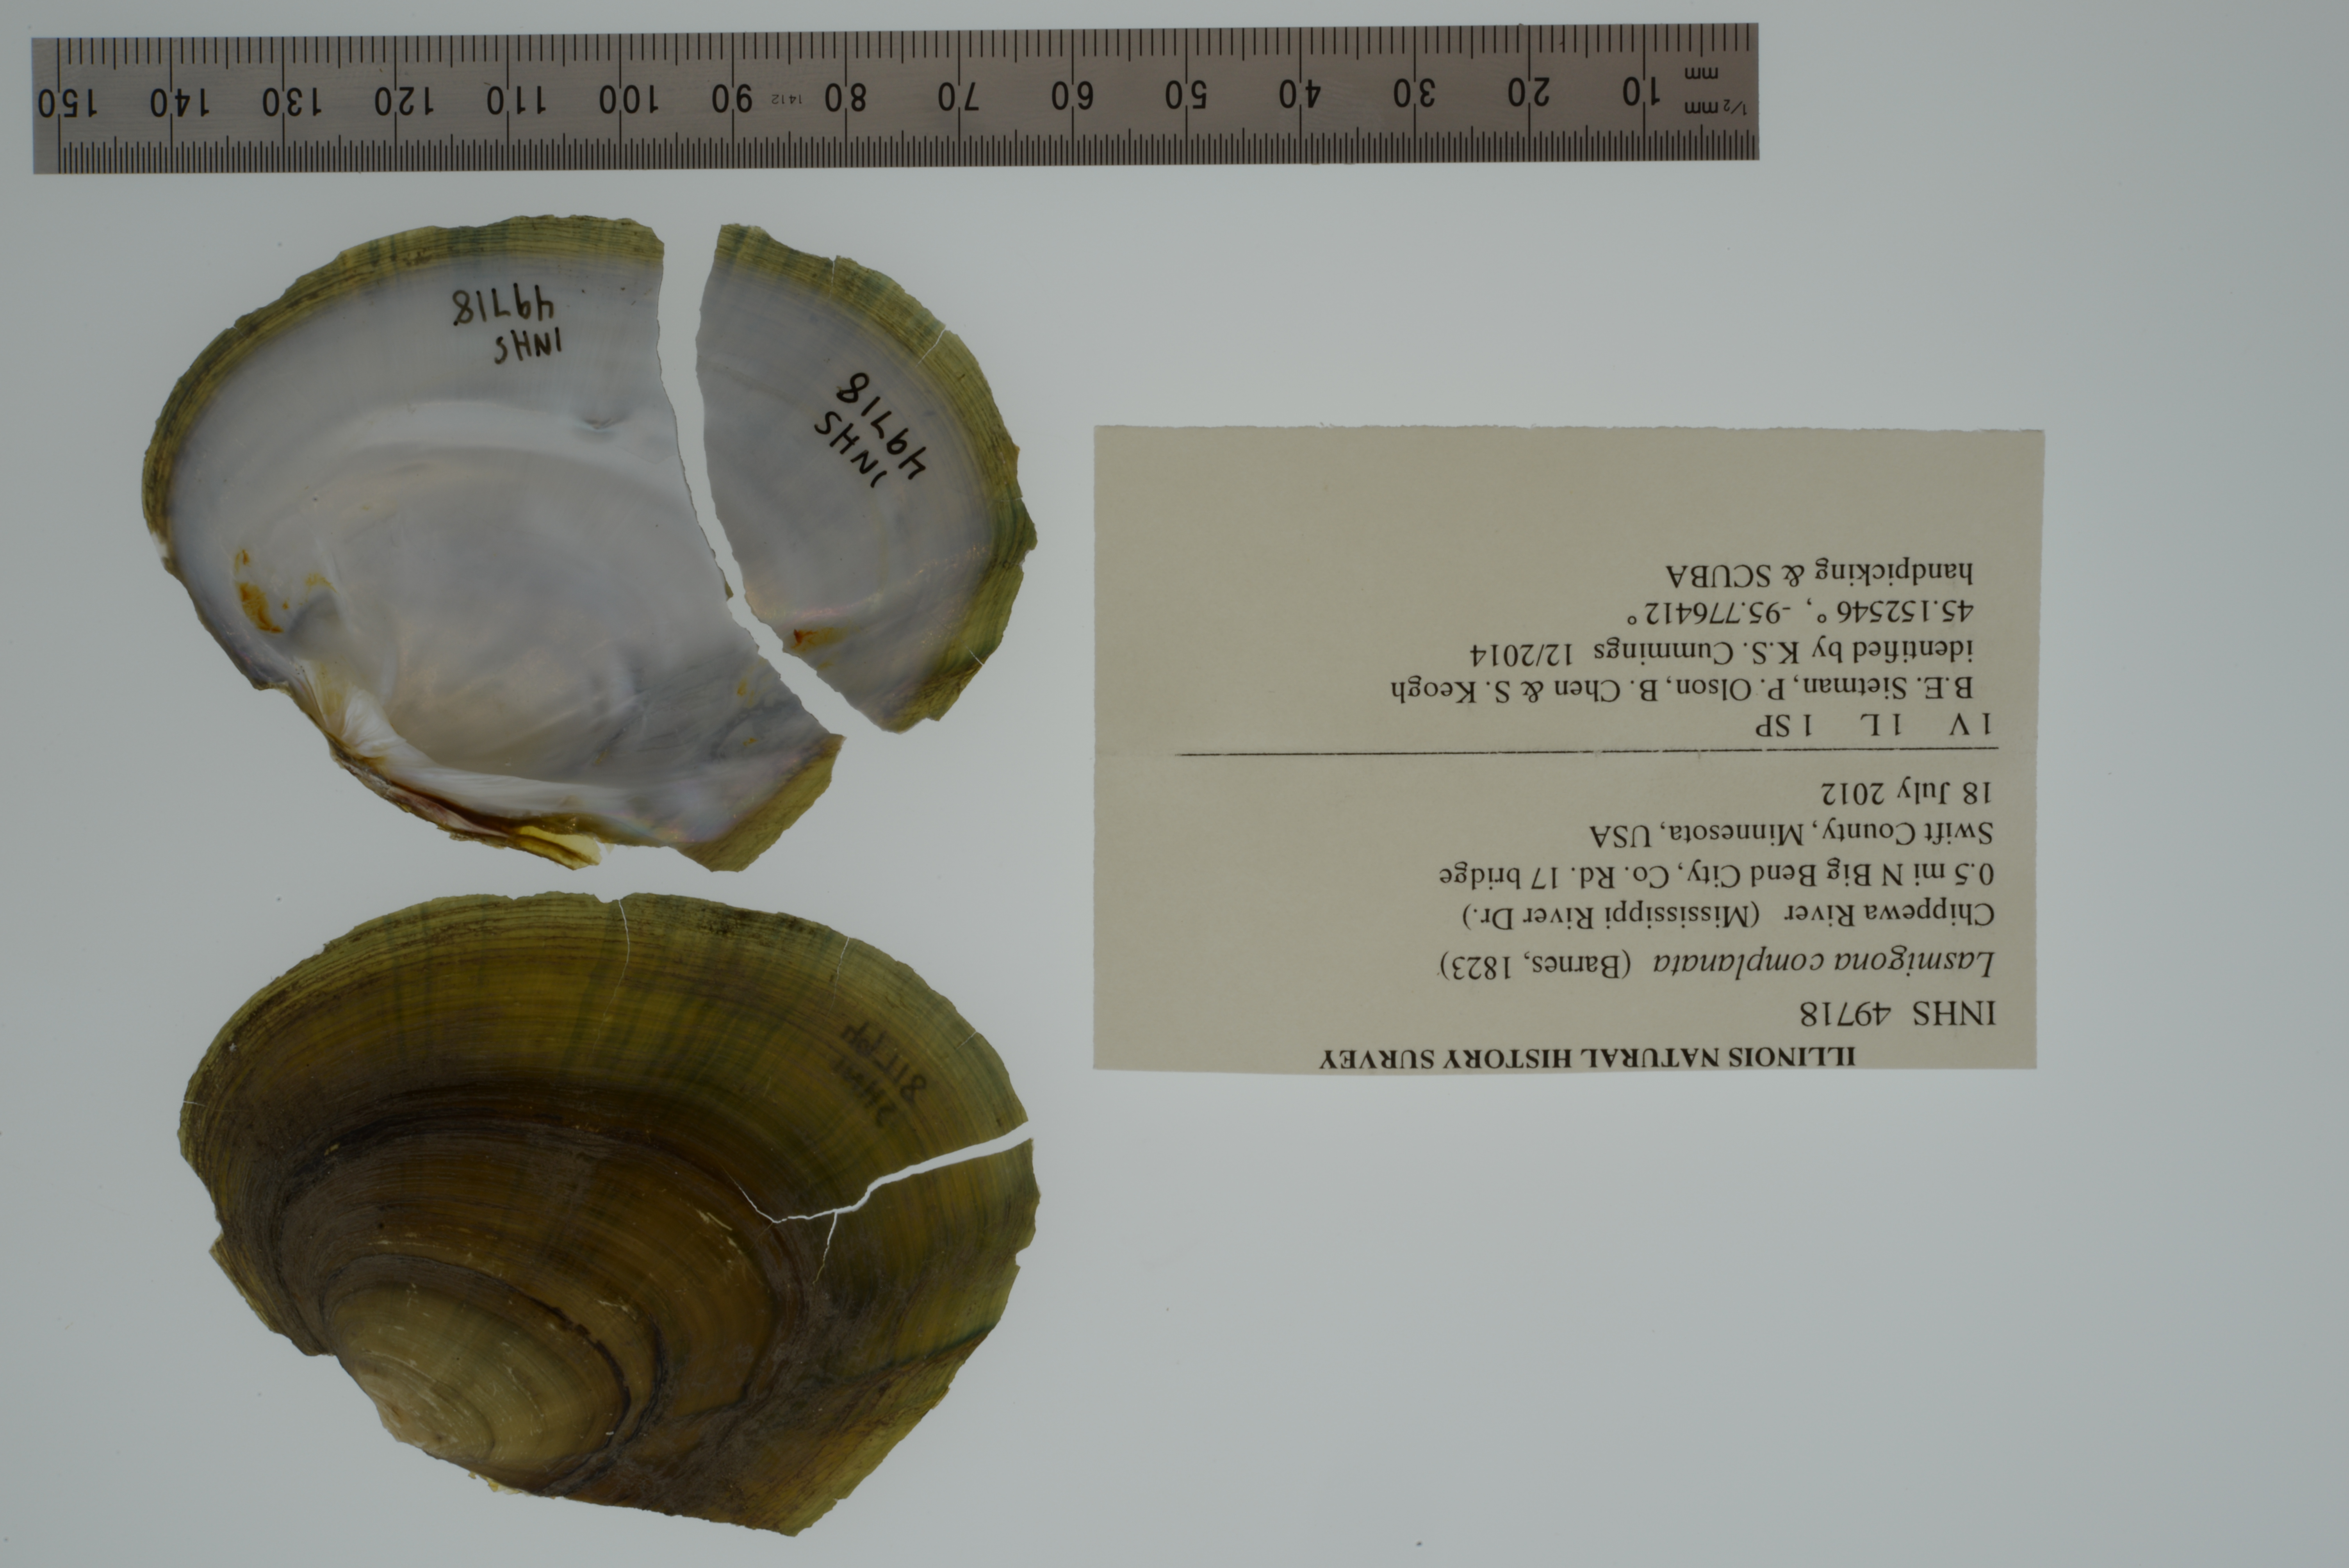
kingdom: Animalia
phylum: Mollusca
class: Bivalvia
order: Unionida
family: Unionidae
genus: Lasmigona
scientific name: Lasmigona complanata
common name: White heelsplitter
